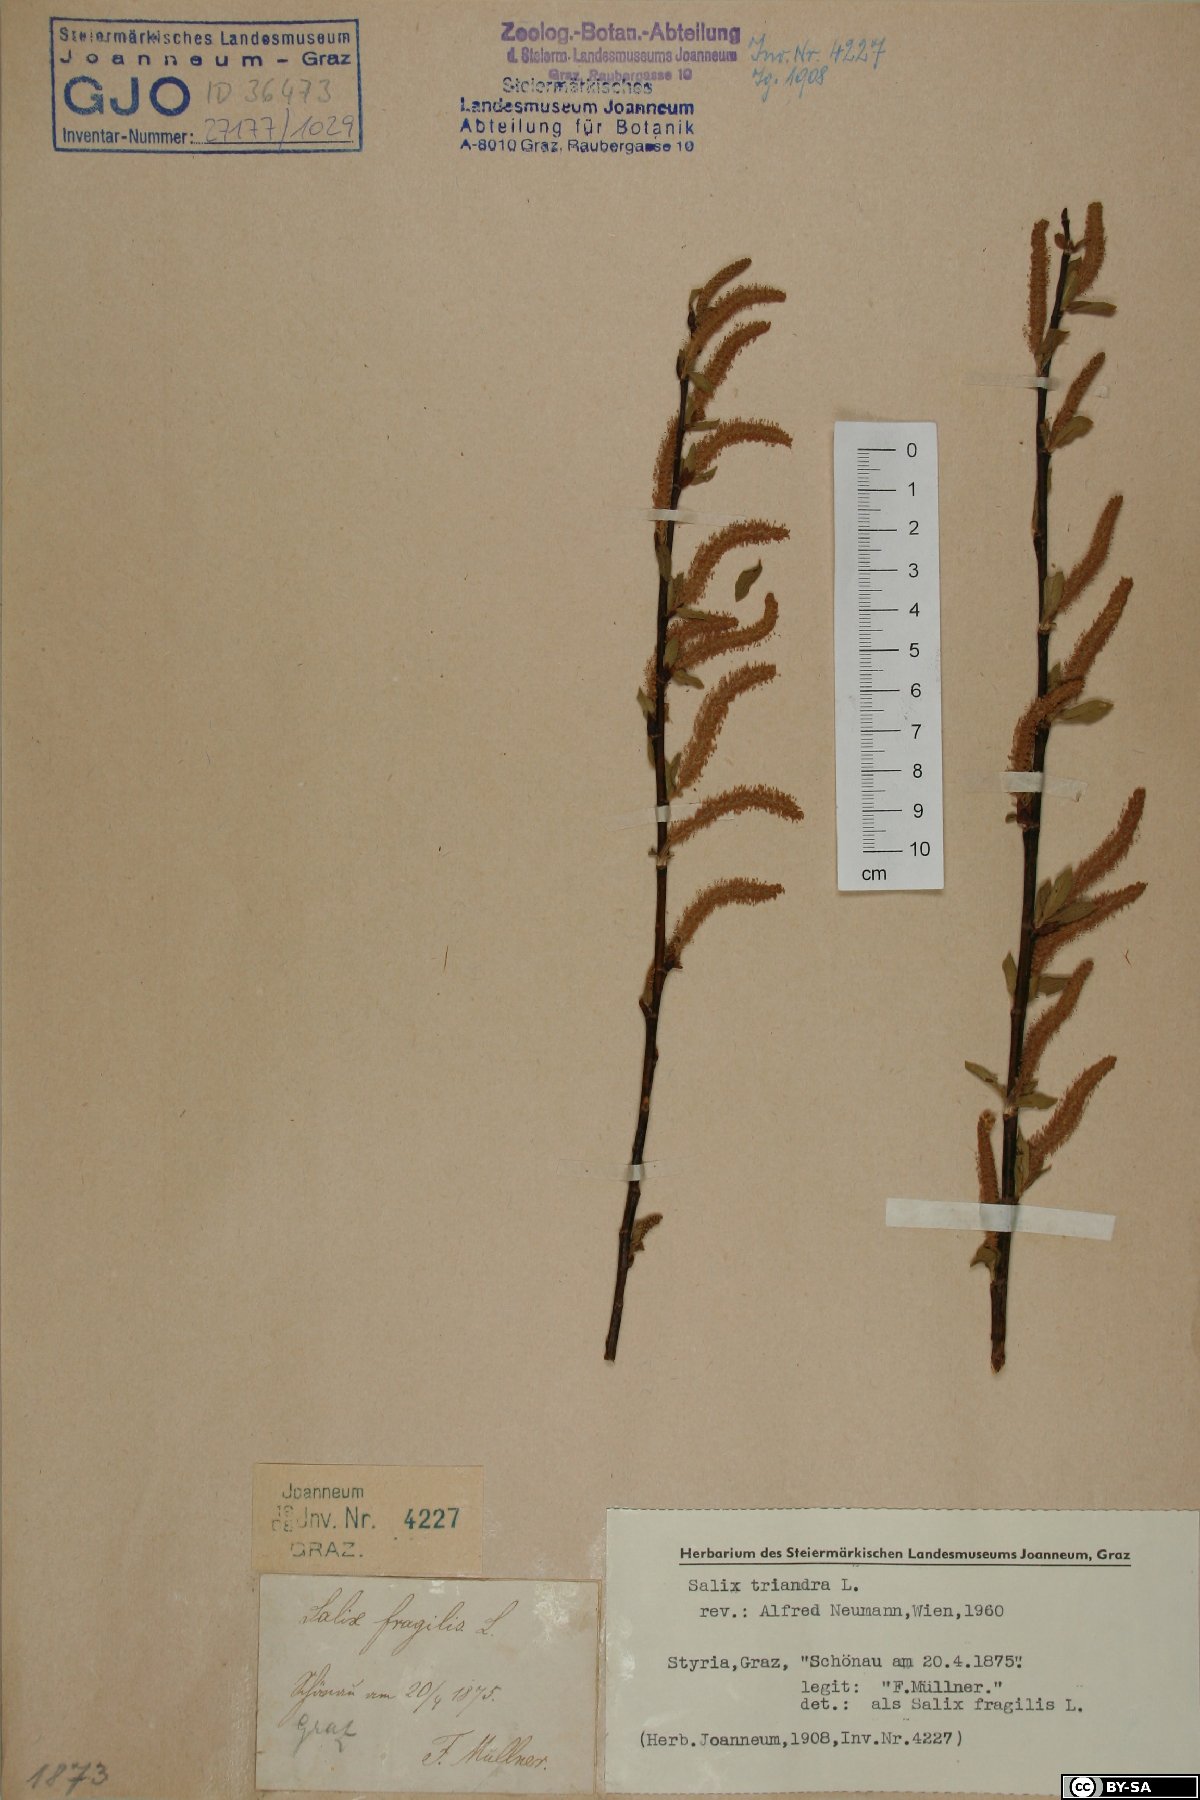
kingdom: Plantae
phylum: Tracheophyta
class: Magnoliopsida
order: Malpighiales
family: Salicaceae
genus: Salix
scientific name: Salix triandra
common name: Almond willow
